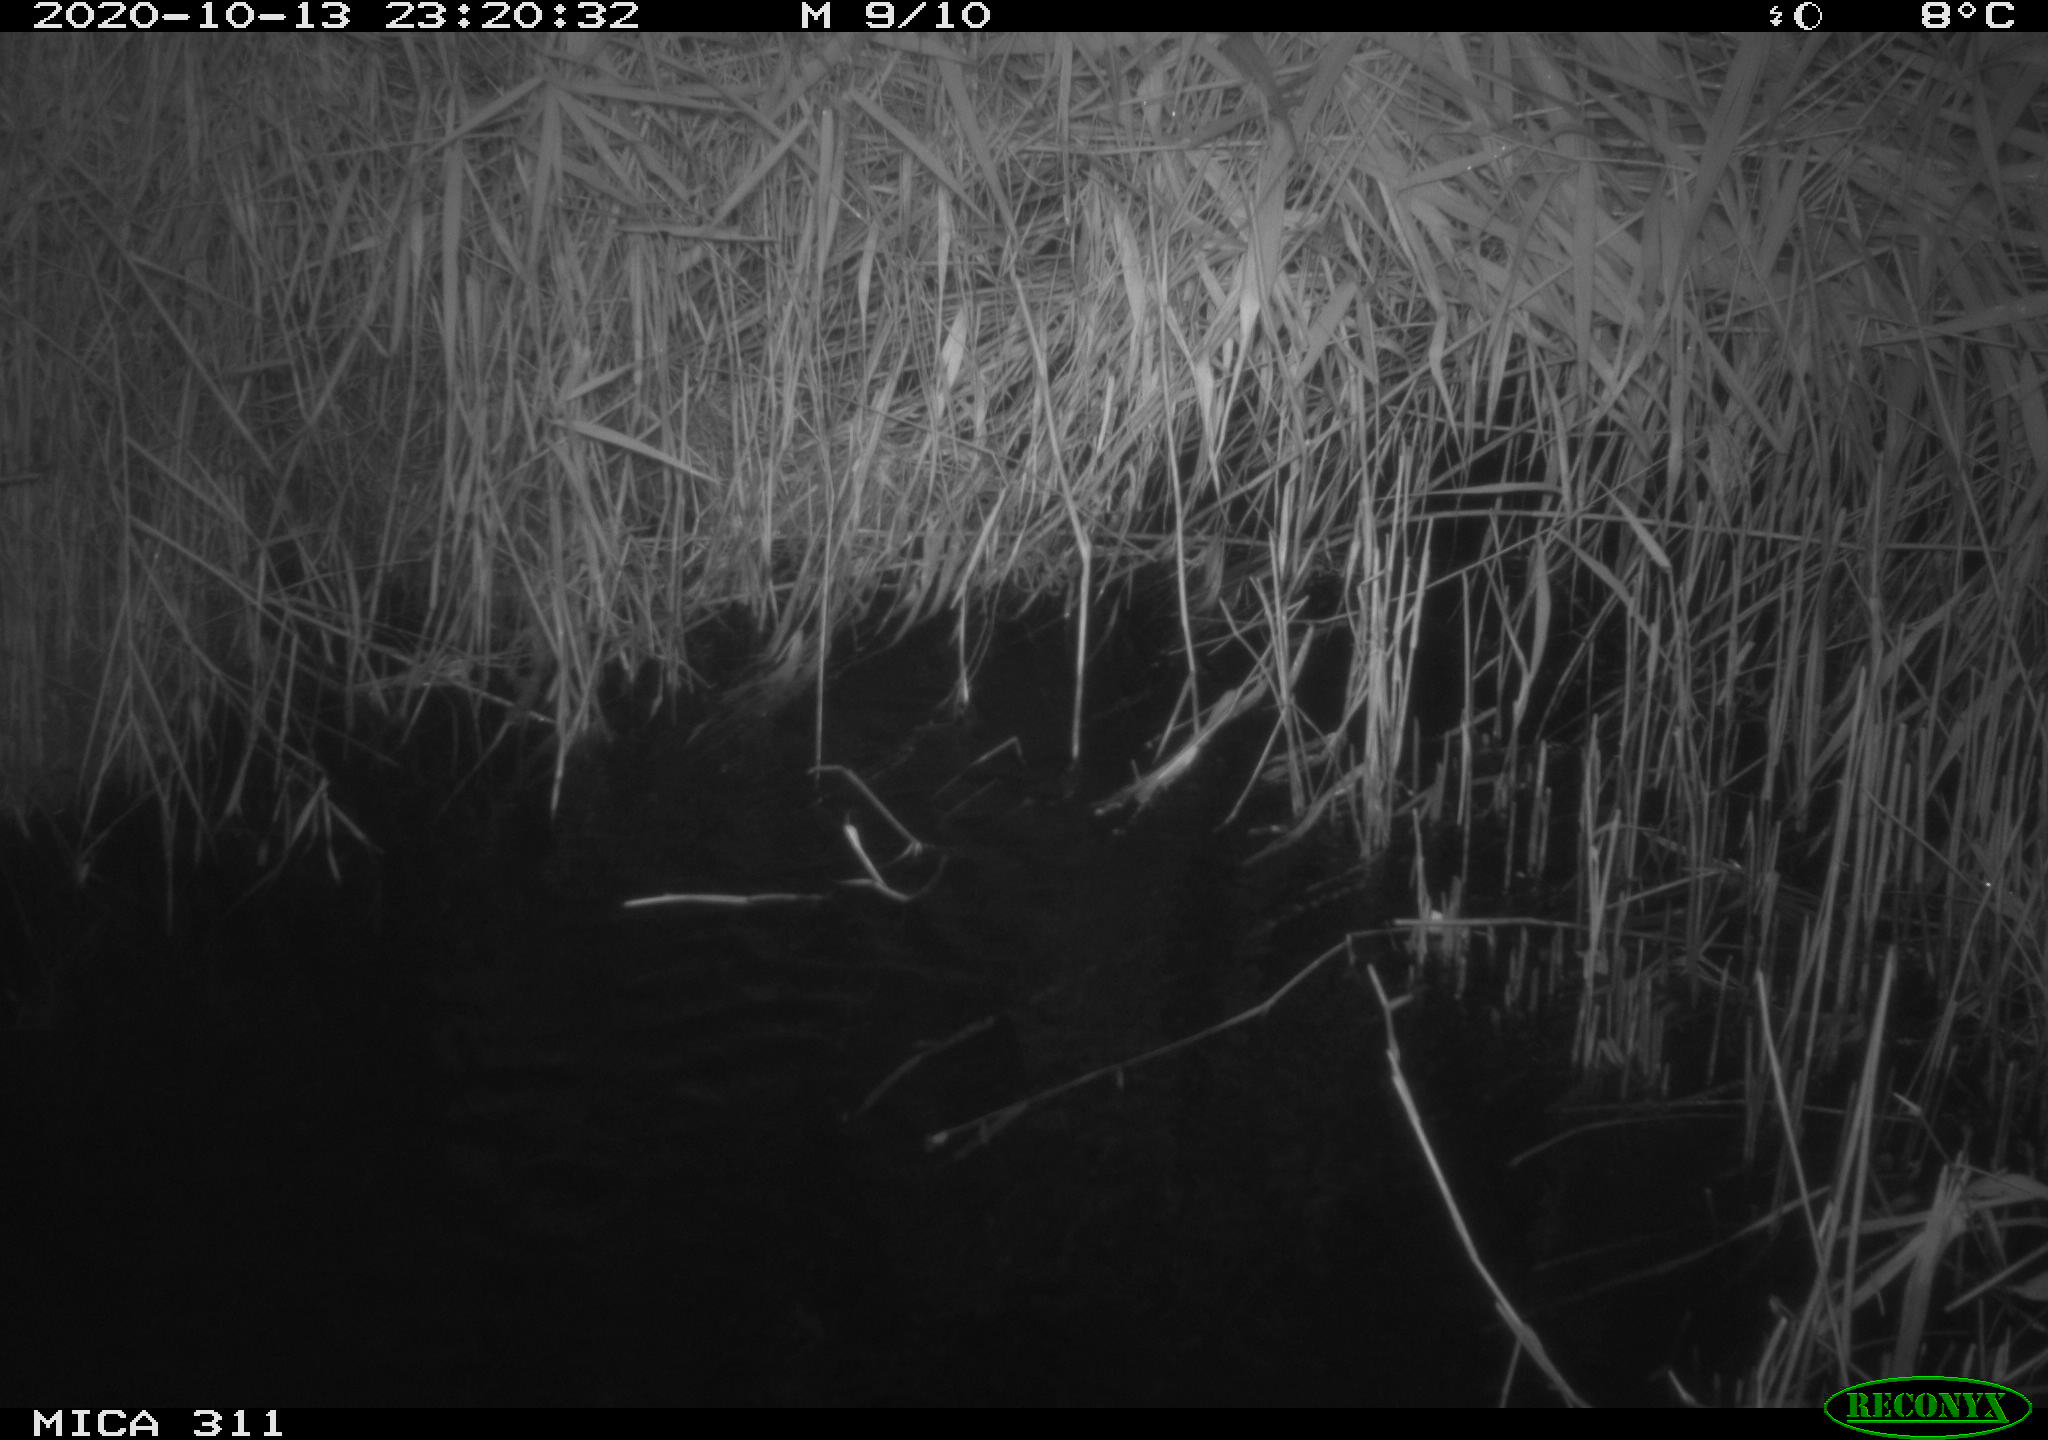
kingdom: Animalia
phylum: Chordata
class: Mammalia
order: Rodentia
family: Muridae
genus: Rattus
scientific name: Rattus norvegicus
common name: Brown rat
